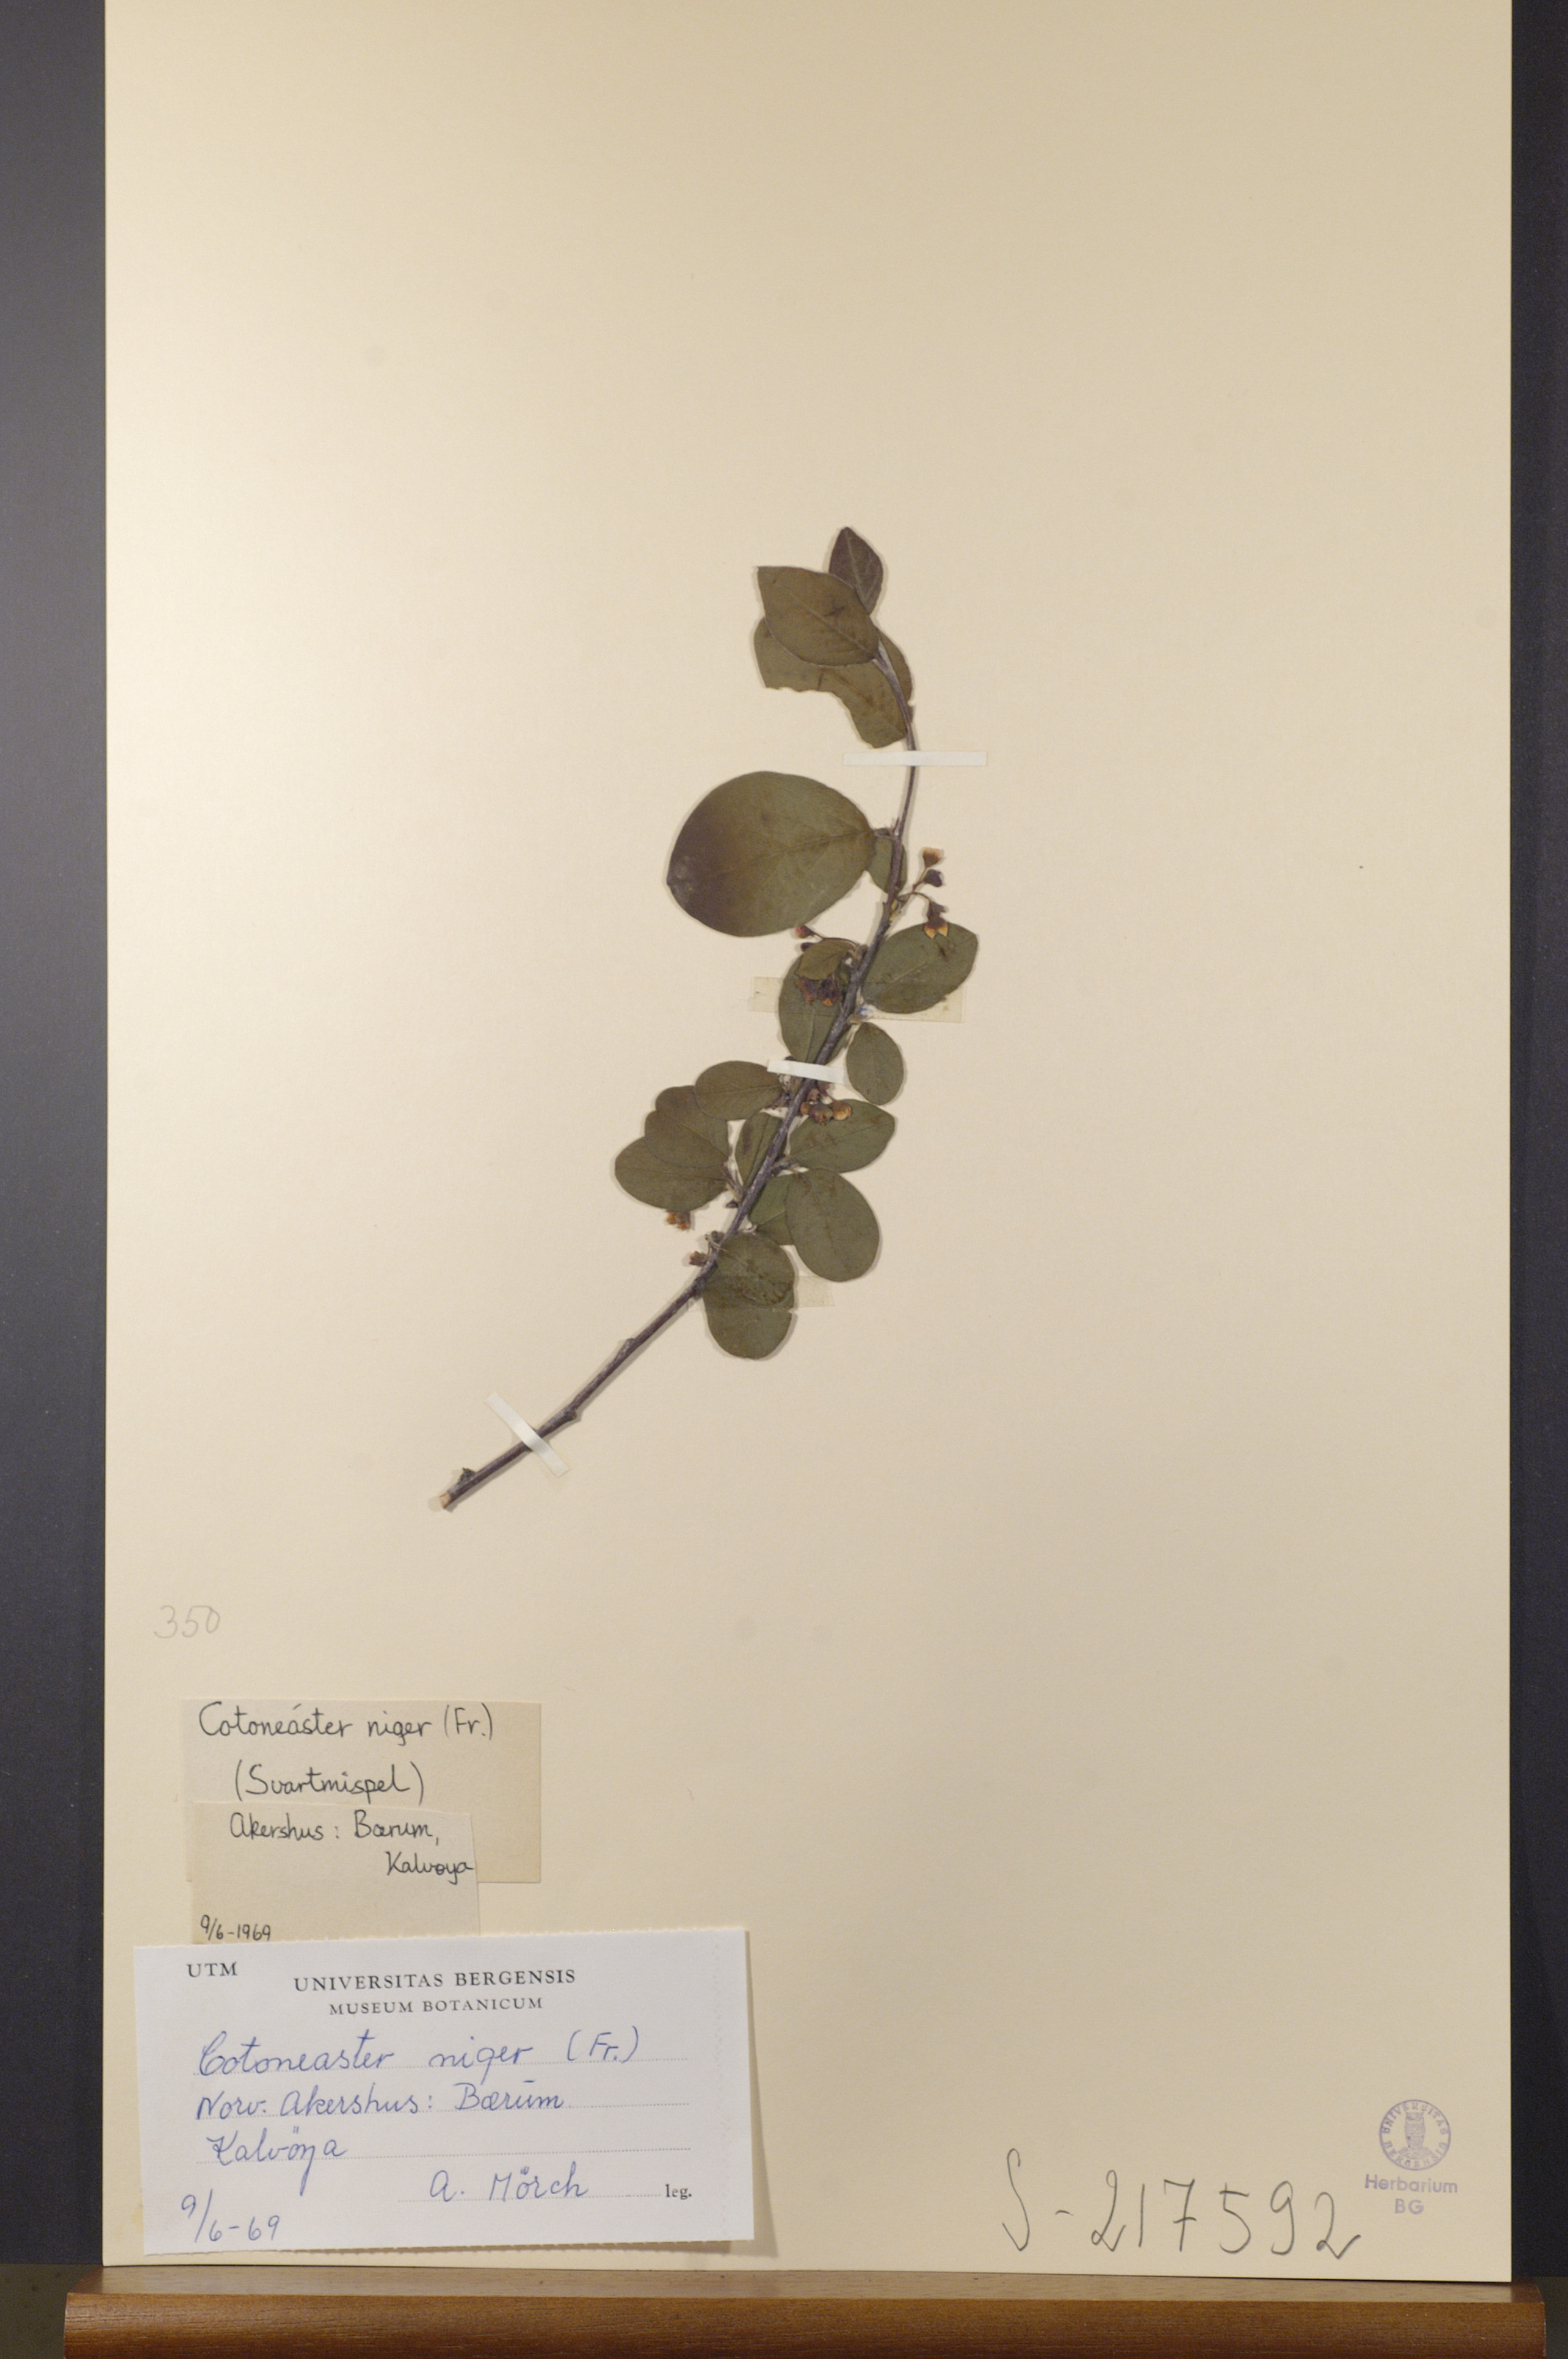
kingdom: Plantae
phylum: Tracheophyta
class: Magnoliopsida
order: Rosales
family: Rosaceae
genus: Cotoneaster
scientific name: Cotoneaster niger
